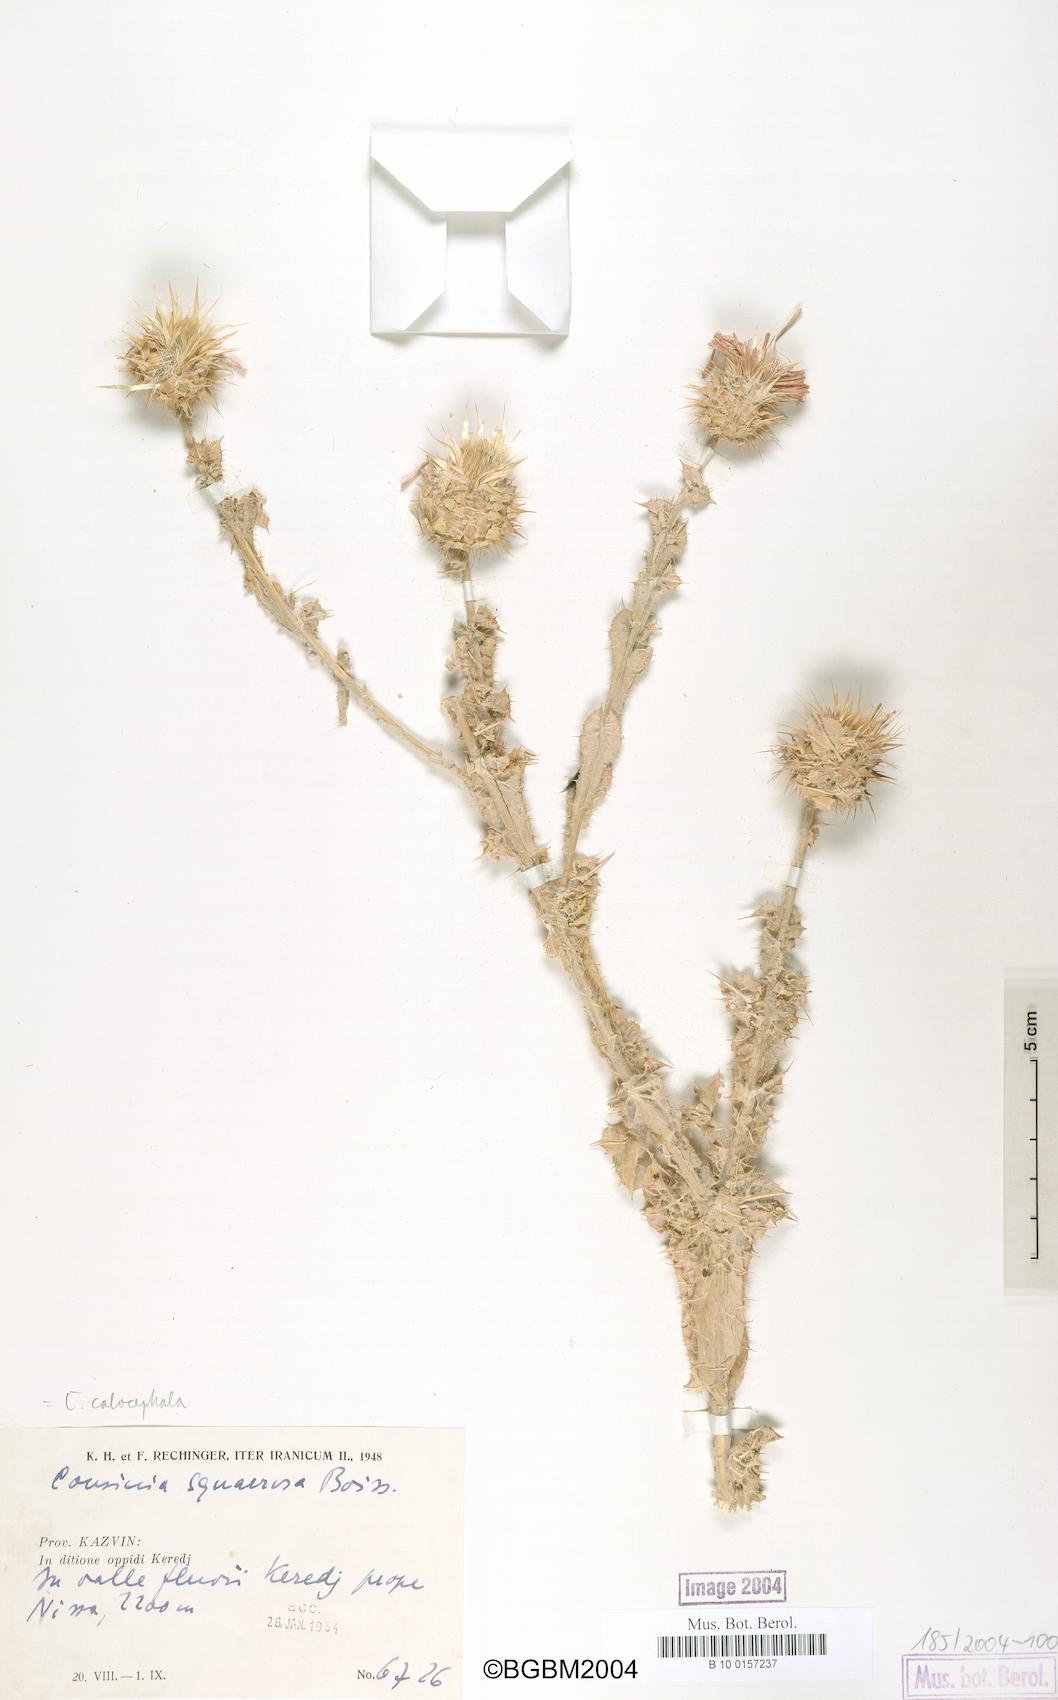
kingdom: Plantae
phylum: Tracheophyta
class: Magnoliopsida
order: Asterales
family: Asteraceae
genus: Cousinia
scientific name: Cousinia calocephala
